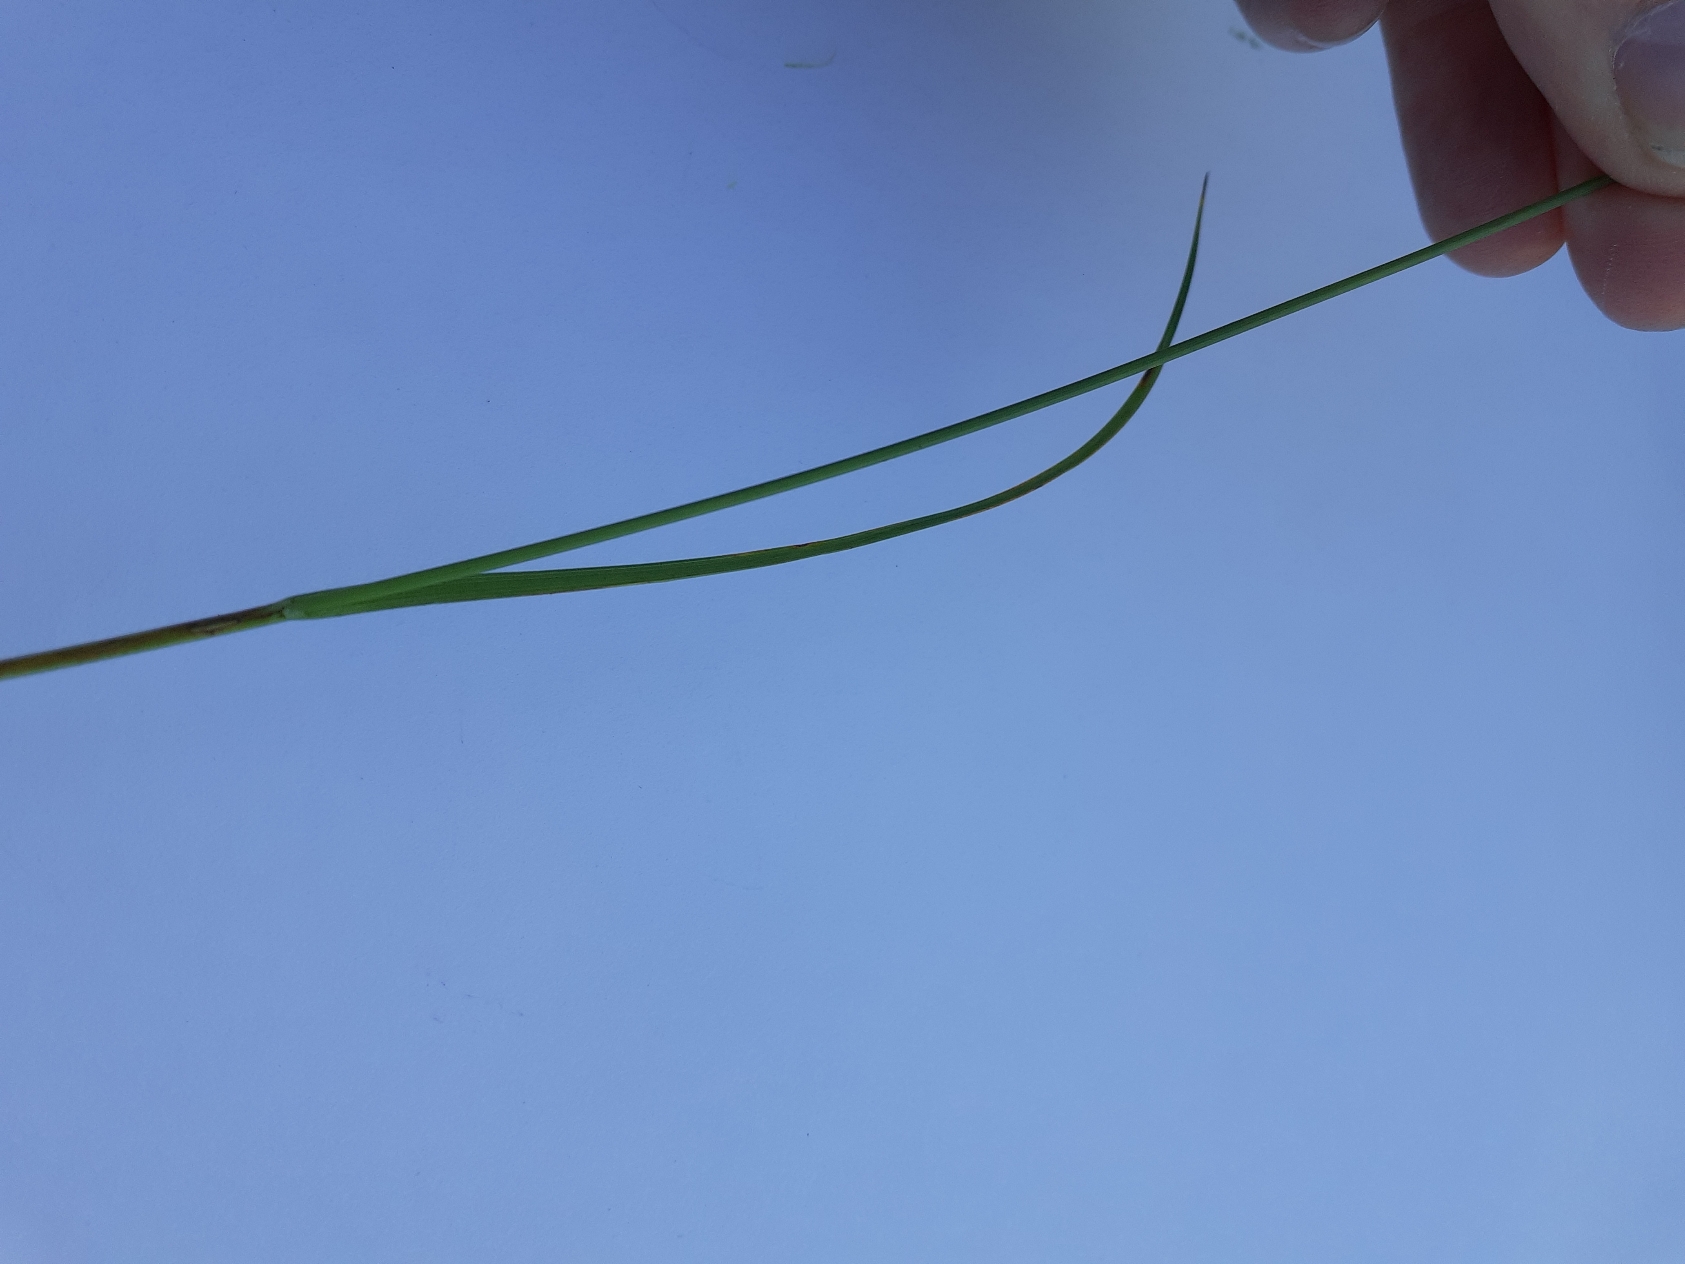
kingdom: Plantae
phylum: Tracheophyta
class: Liliopsida
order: Poales
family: Cyperaceae
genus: Carex
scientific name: Carex flacca
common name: Blågrøn star
